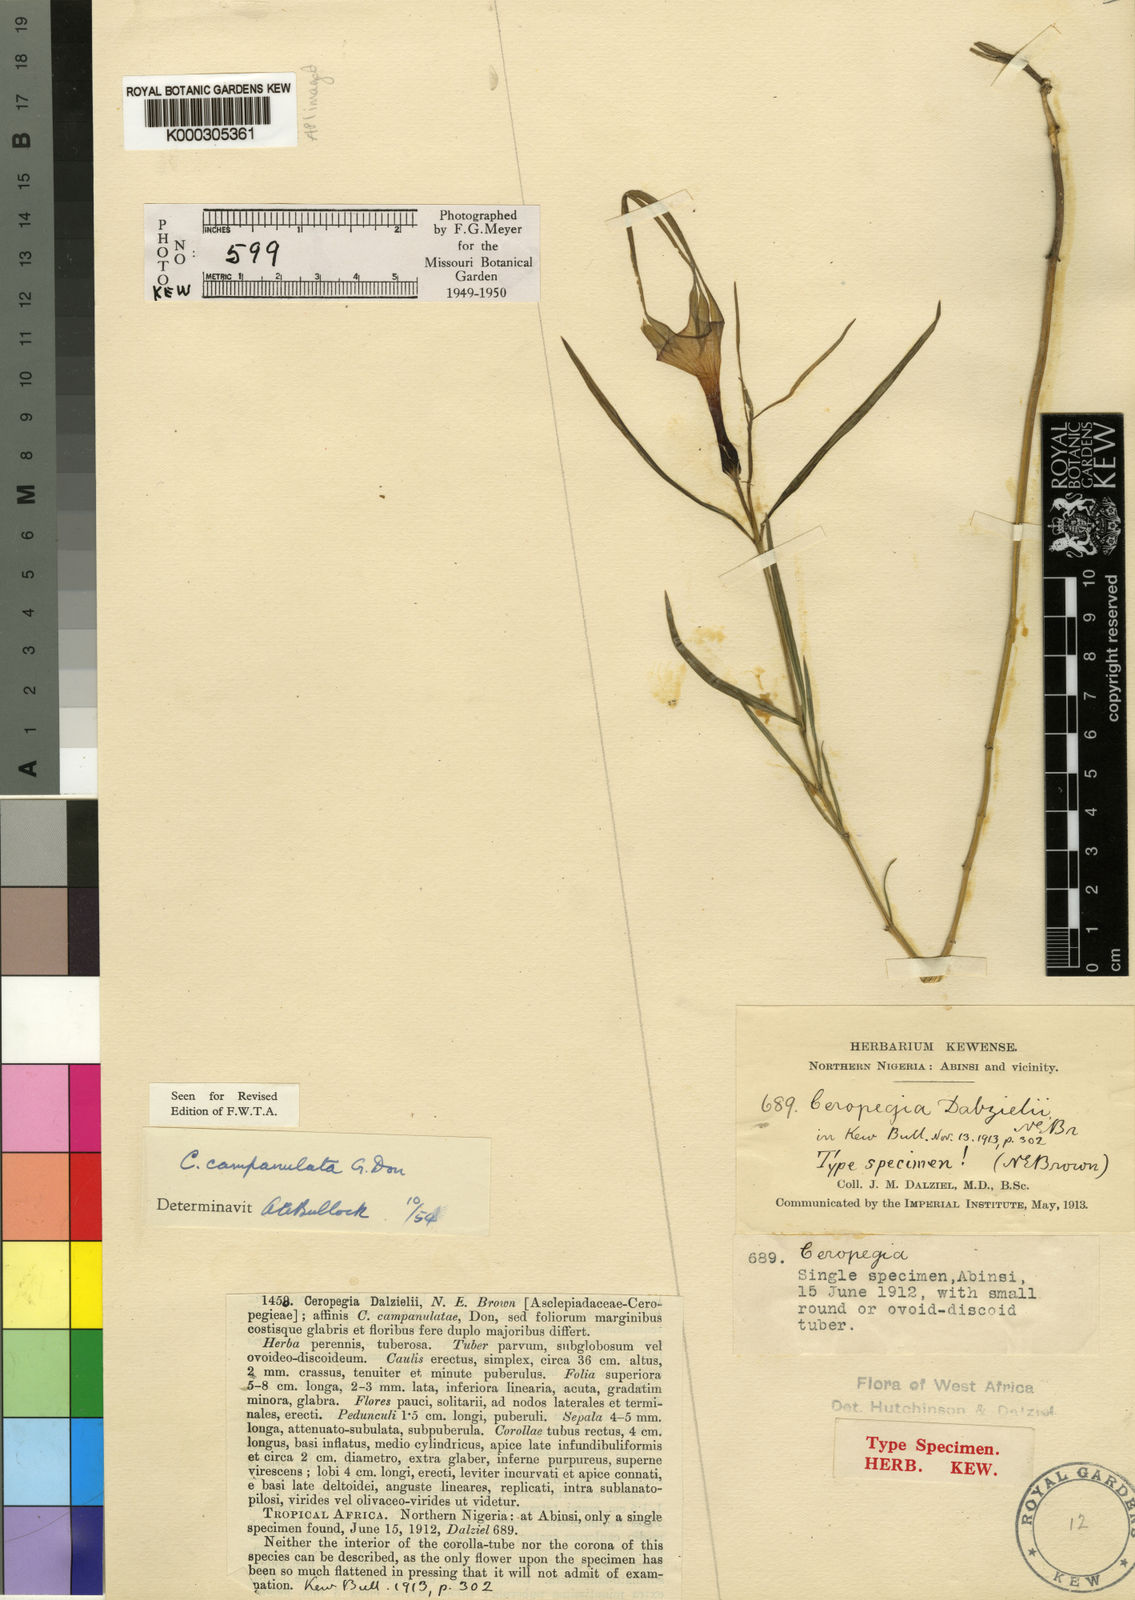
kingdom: Plantae
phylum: Tracheophyta
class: Magnoliopsida
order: Gentianales
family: Apocynaceae
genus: Ceropegia
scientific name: Ceropegia campanulata
